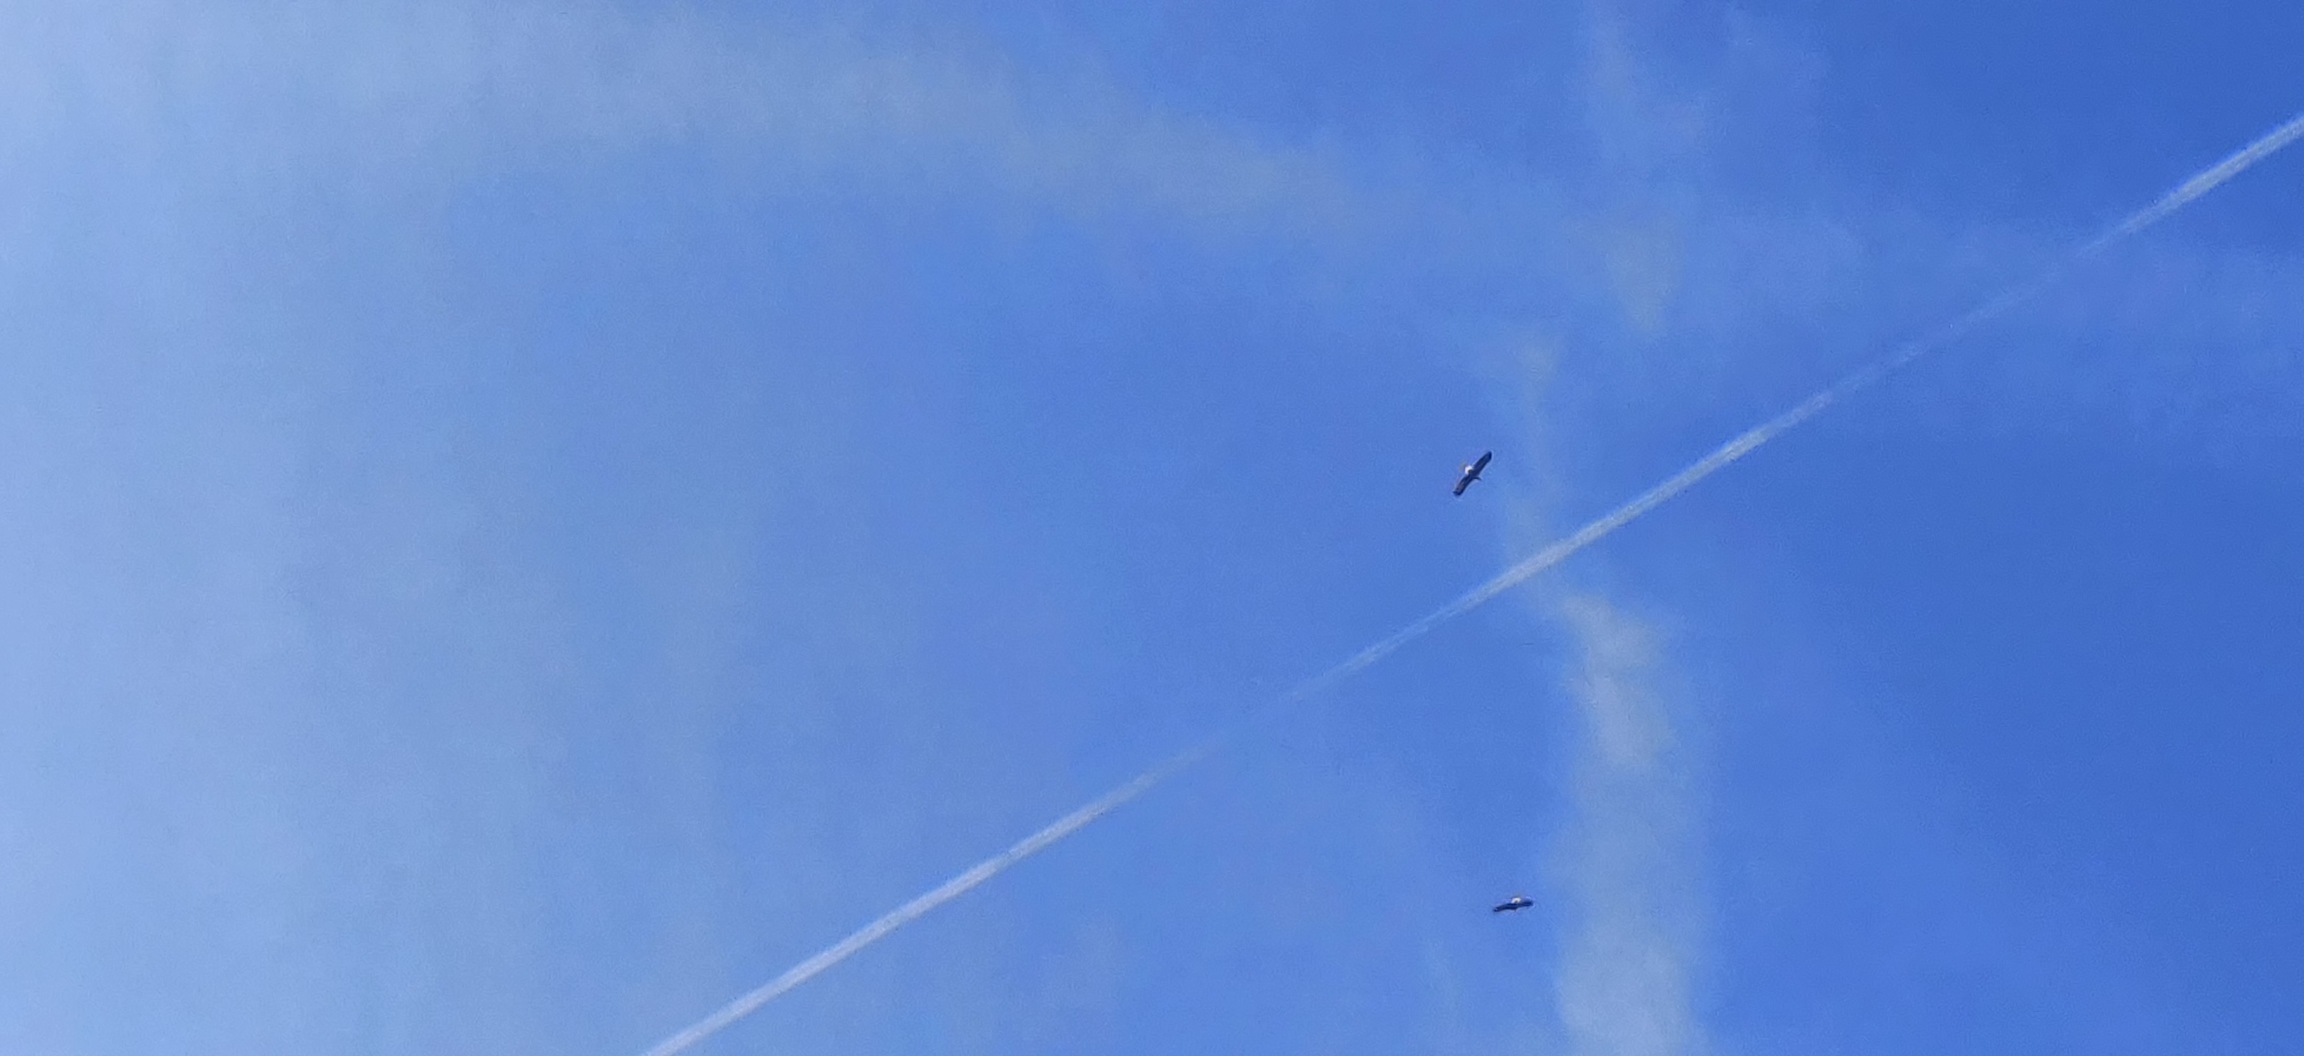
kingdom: Animalia
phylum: Chordata
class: Aves
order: Accipitriformes
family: Accipitridae
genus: Haliaeetus
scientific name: Haliaeetus albicilla
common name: Havørn
